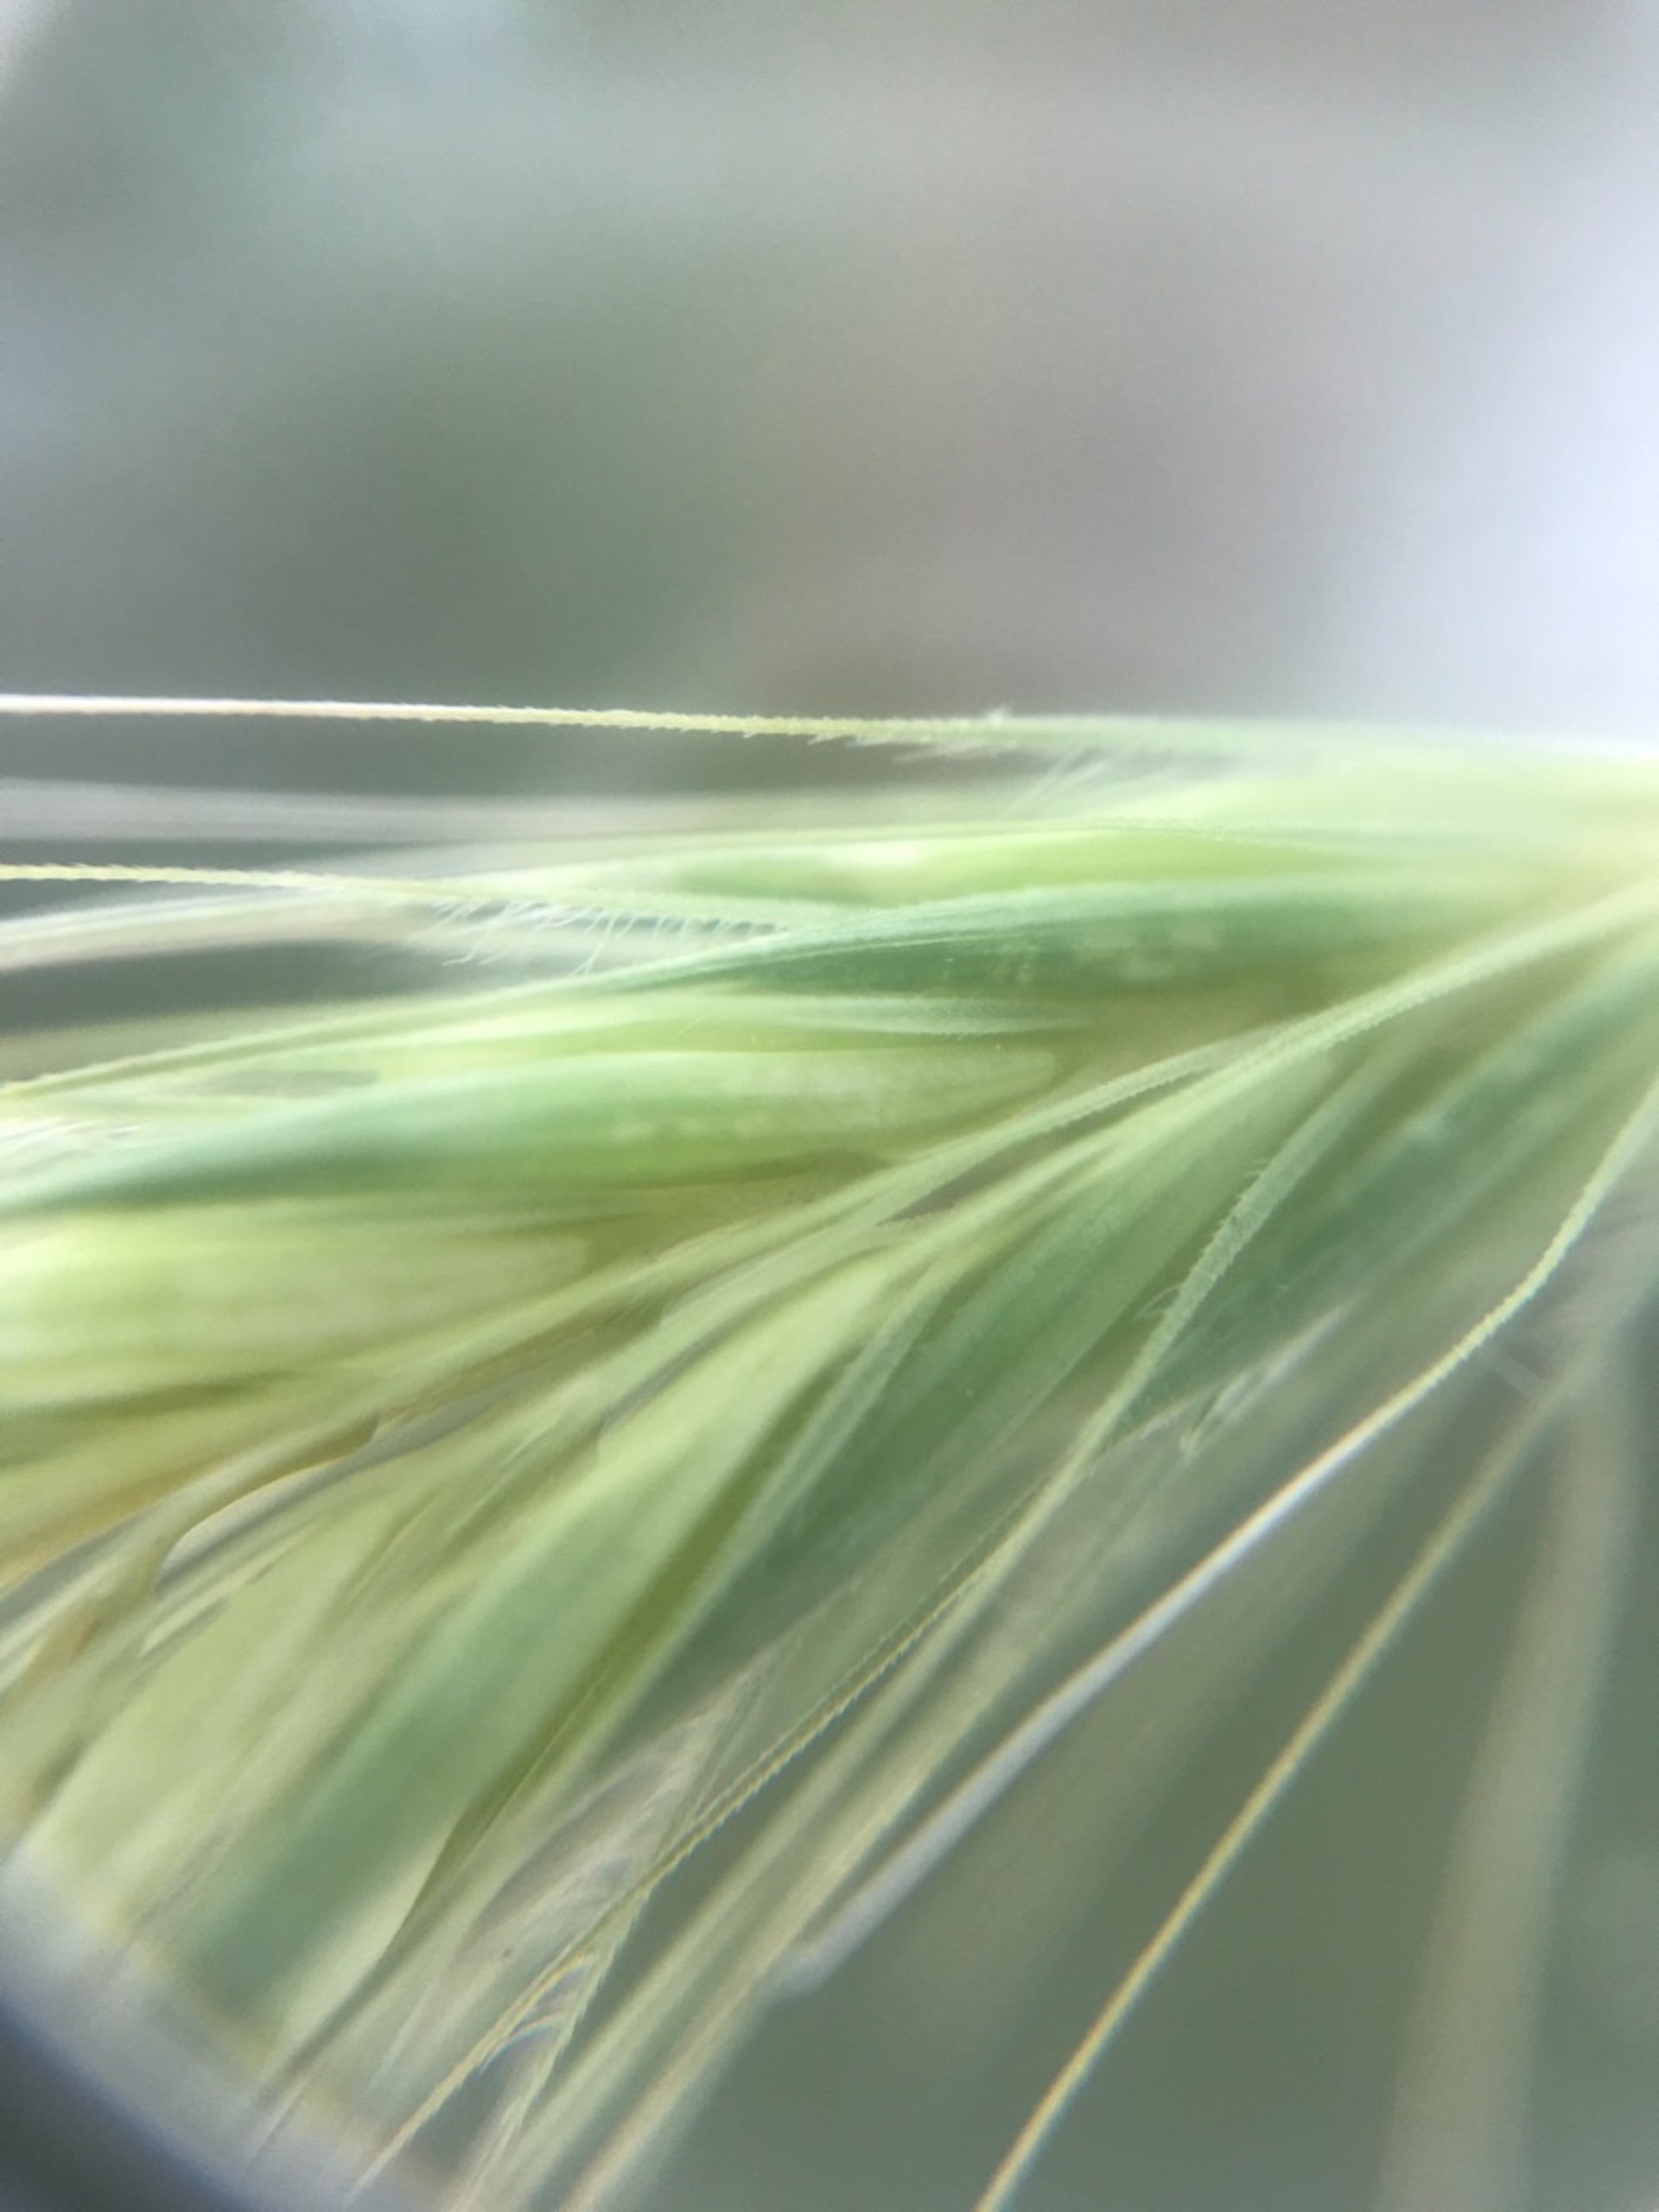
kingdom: Plantae
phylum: Tracheophyta
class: Liliopsida
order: Poales
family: Poaceae
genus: Hordeum
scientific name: Hordeum murinum
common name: Gold byg
